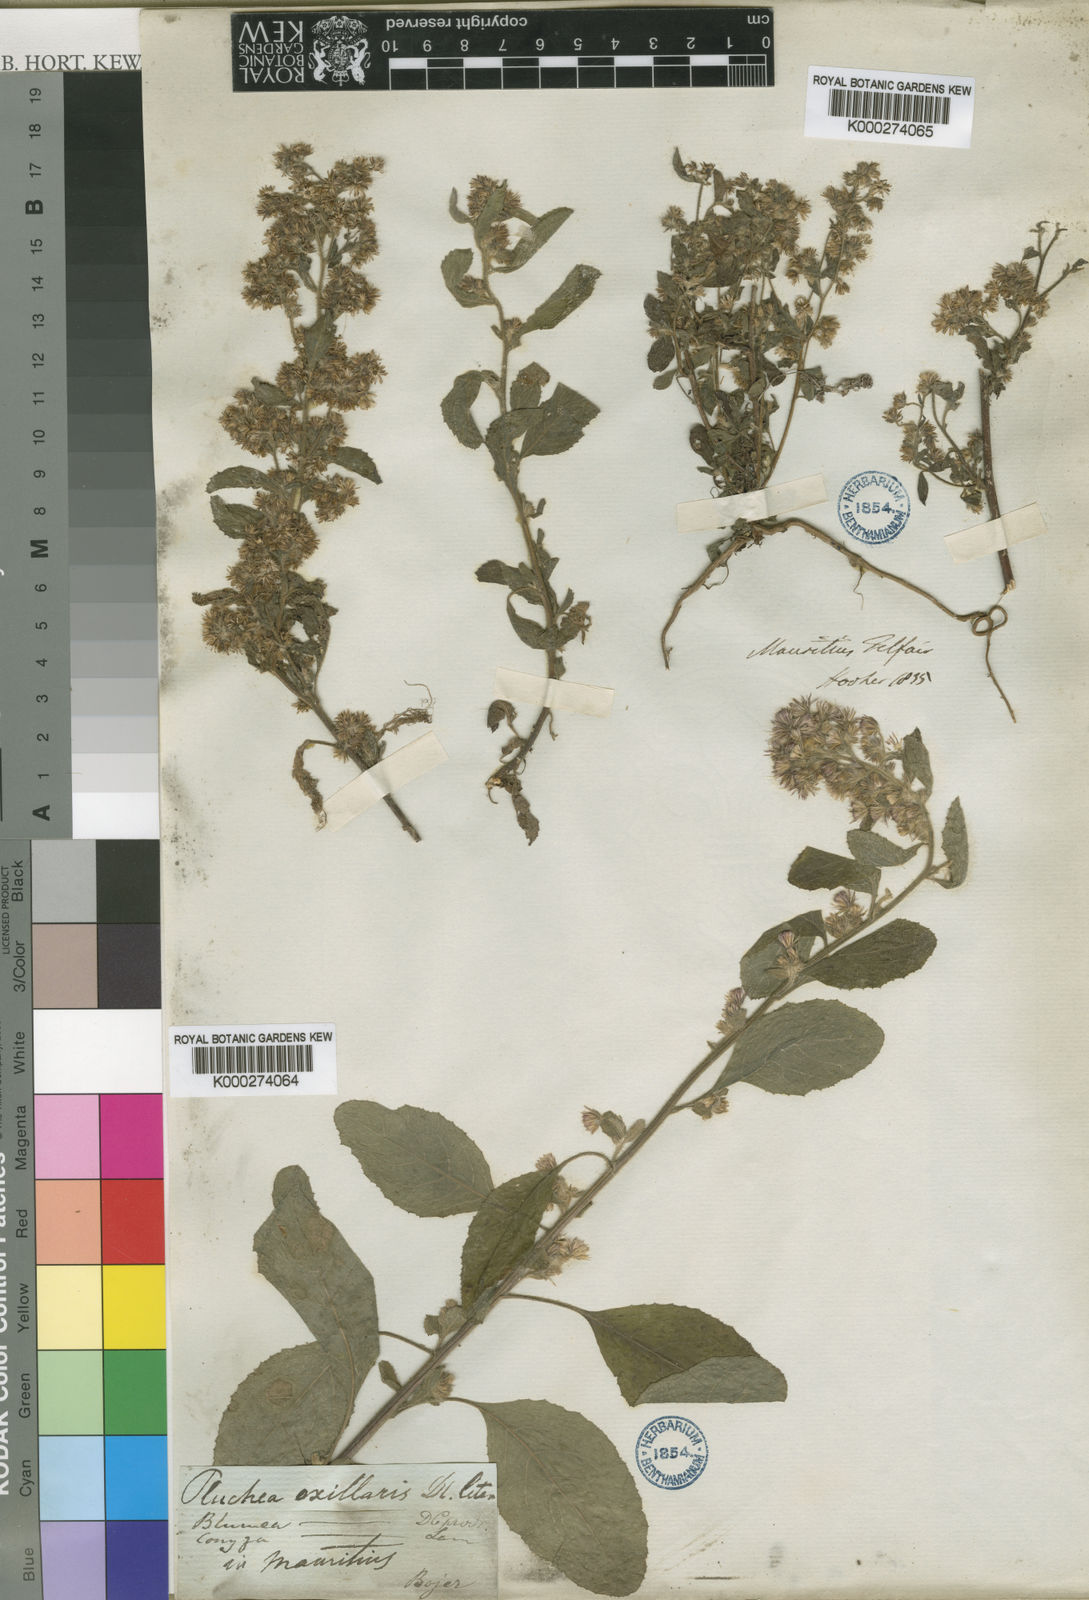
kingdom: Plantae
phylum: Tracheophyta
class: Magnoliopsida
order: Asterales
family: Asteraceae
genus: Blumea
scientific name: Blumea axillaris
